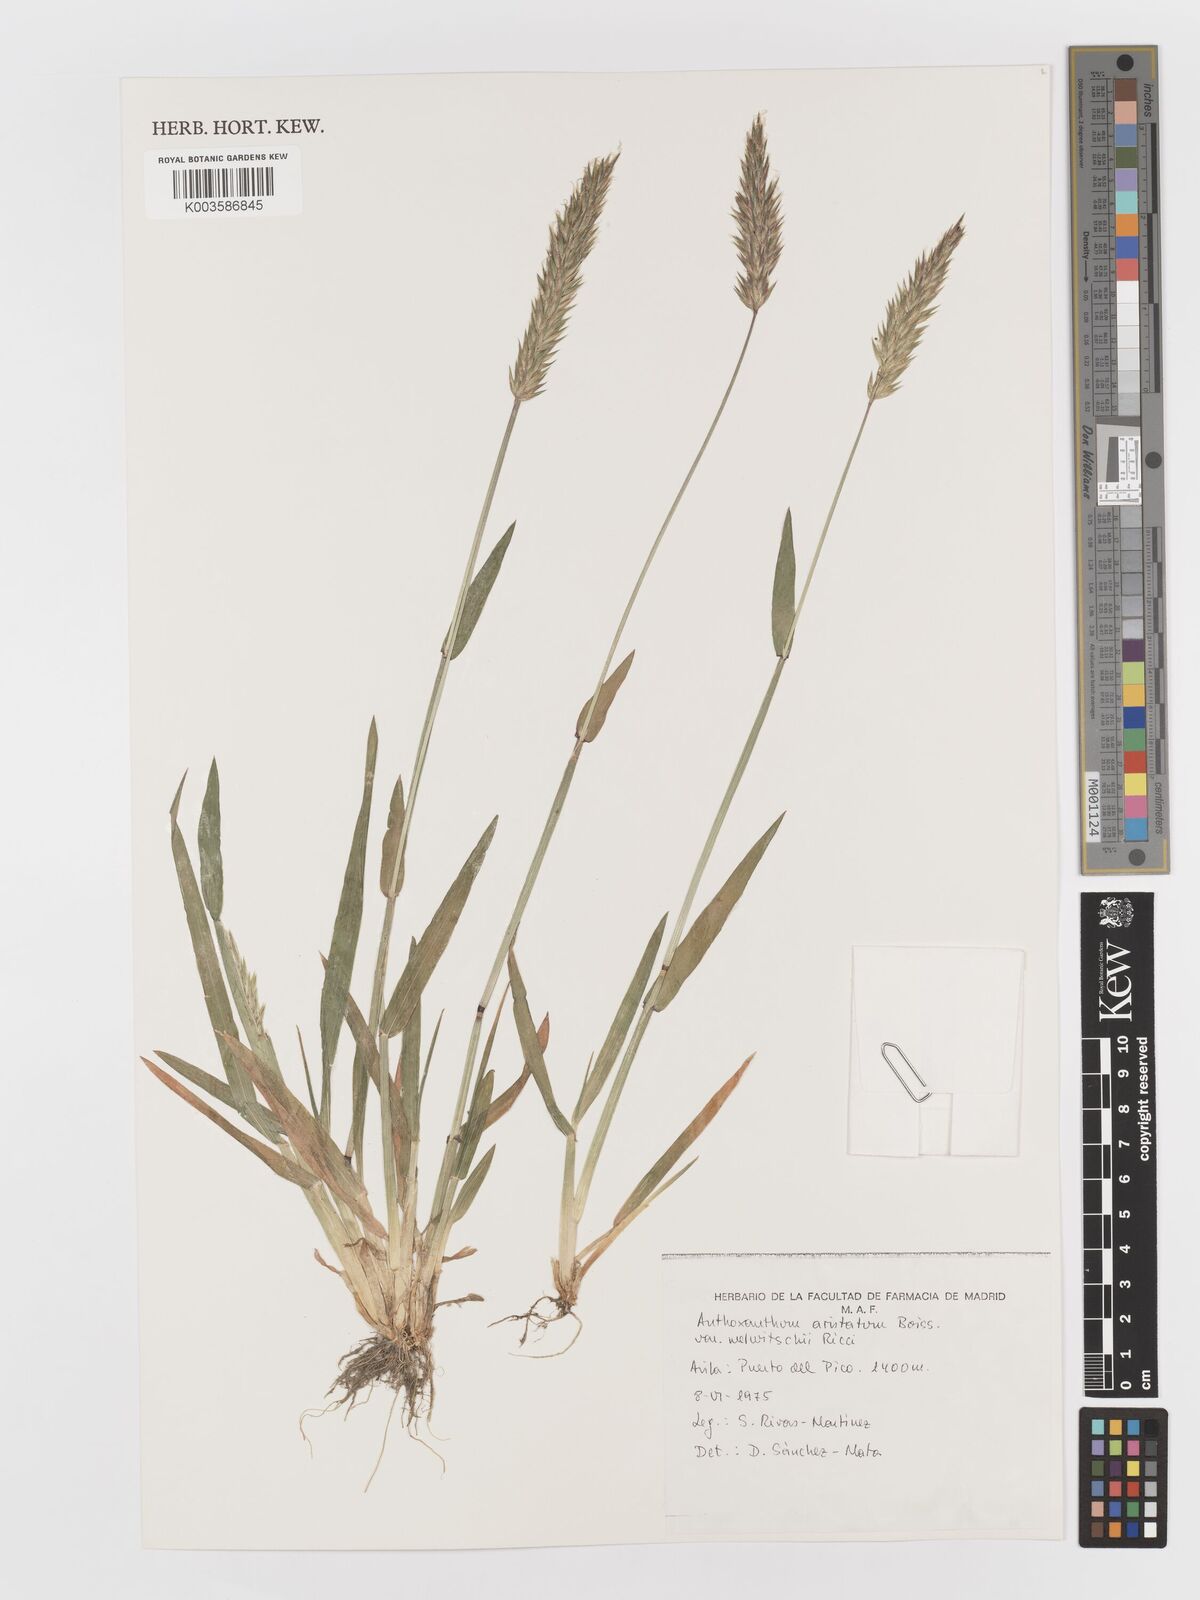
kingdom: Plantae
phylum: Tracheophyta
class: Liliopsida
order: Poales
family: Poaceae
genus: Anthoxanthum
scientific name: Anthoxanthum
